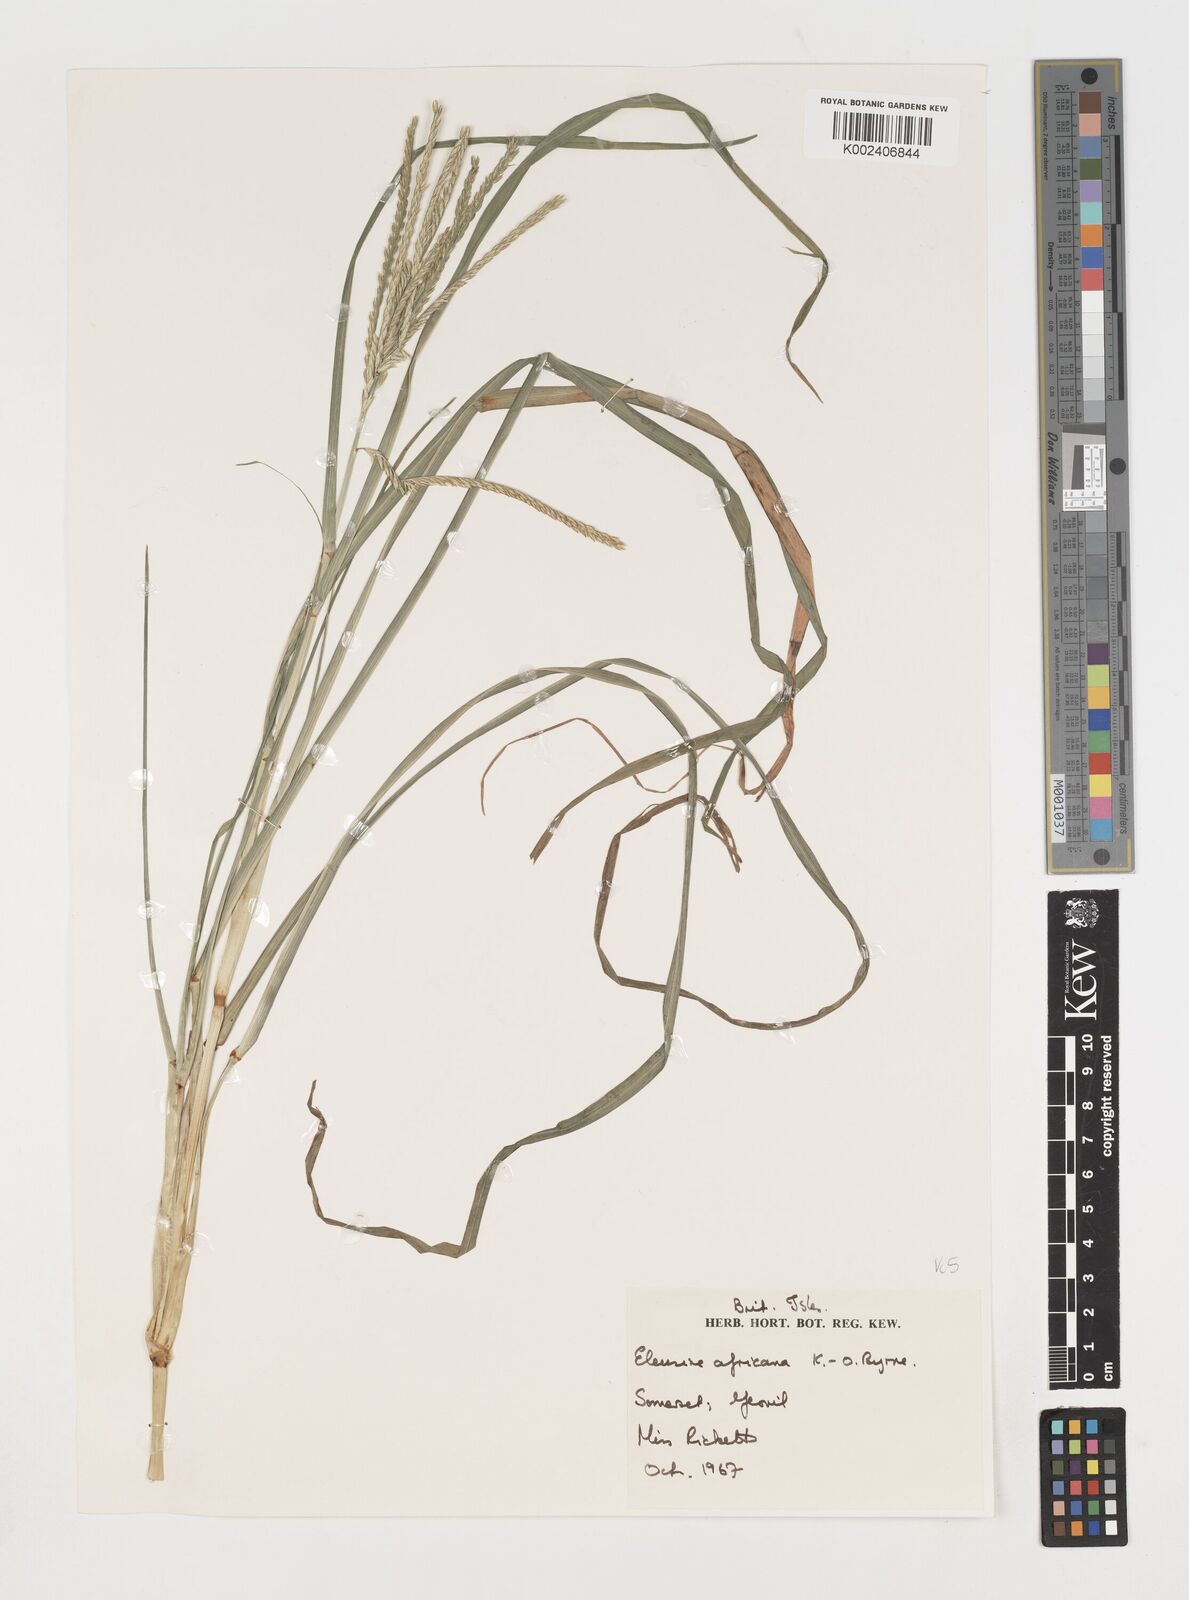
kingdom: Plantae
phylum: Tracheophyta
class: Liliopsida
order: Poales
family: Poaceae
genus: Eleusine
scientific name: Eleusine africana
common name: Wild african finger millet
